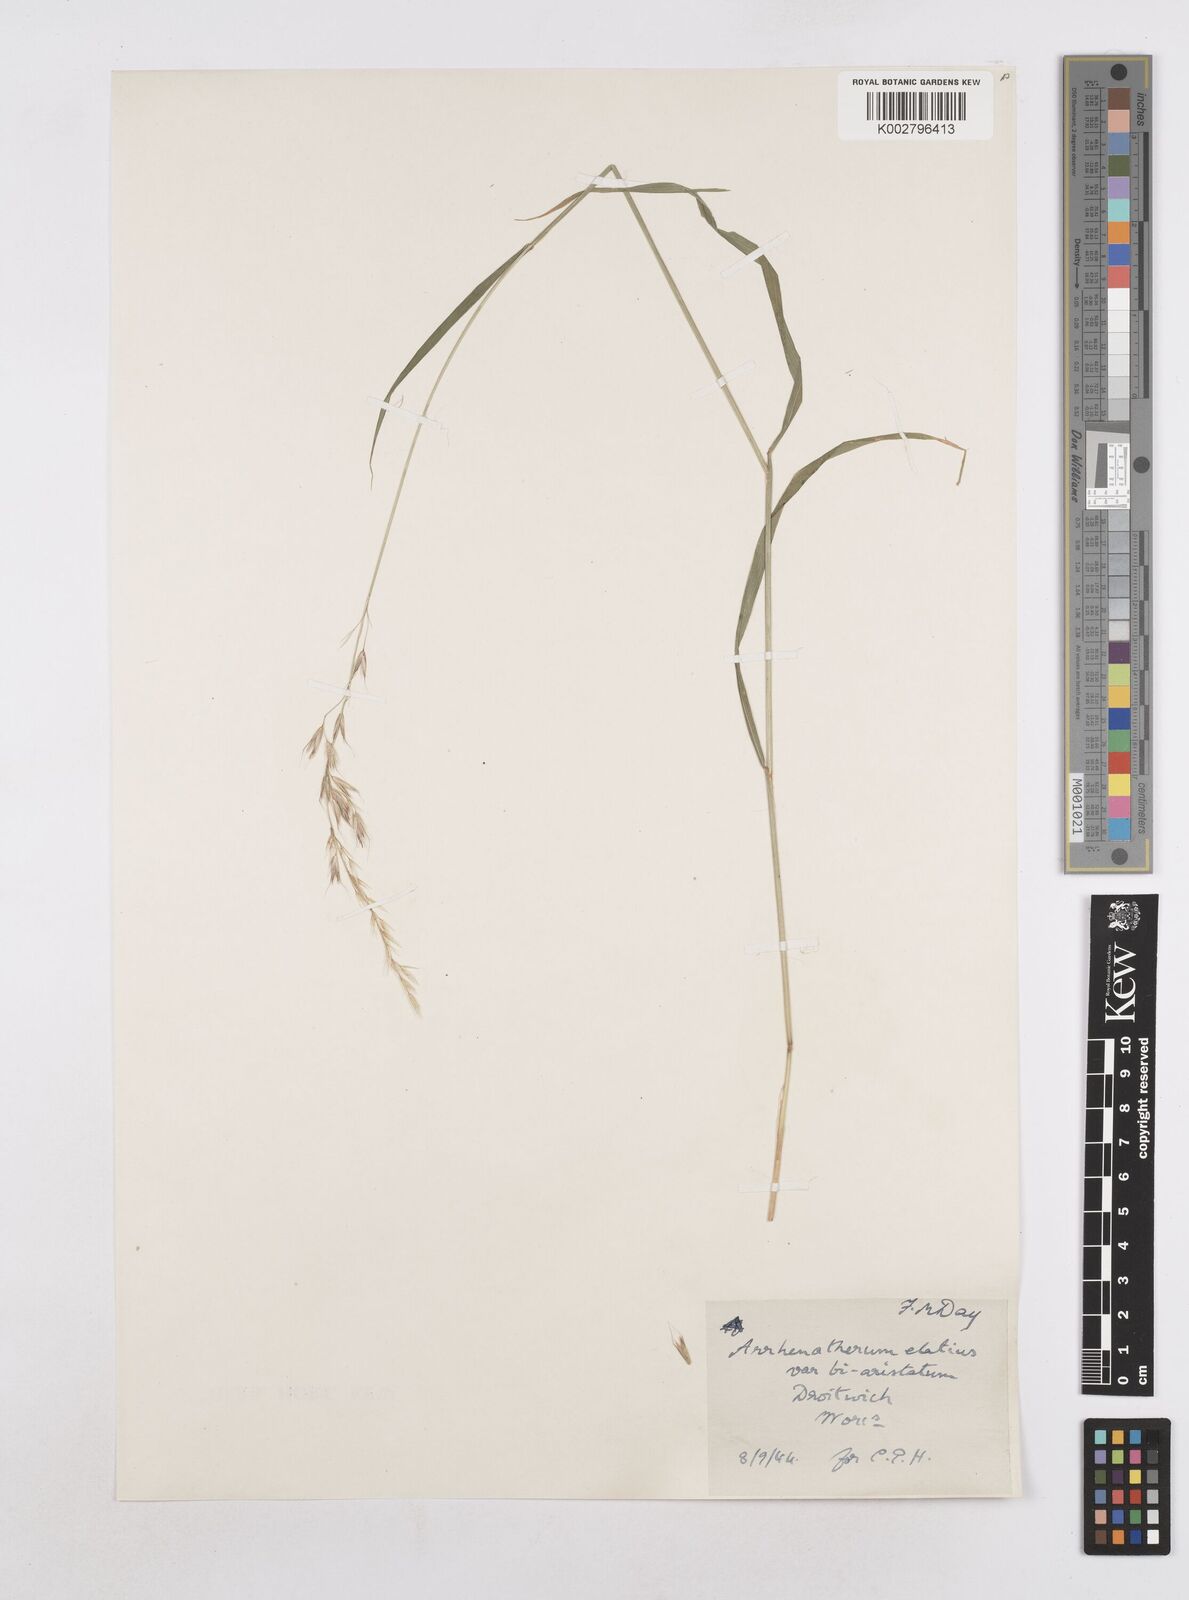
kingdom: Plantae
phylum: Tracheophyta
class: Liliopsida
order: Poales
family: Poaceae
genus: Arrhenatherum
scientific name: Arrhenatherum elatius
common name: Tall oatgrass
